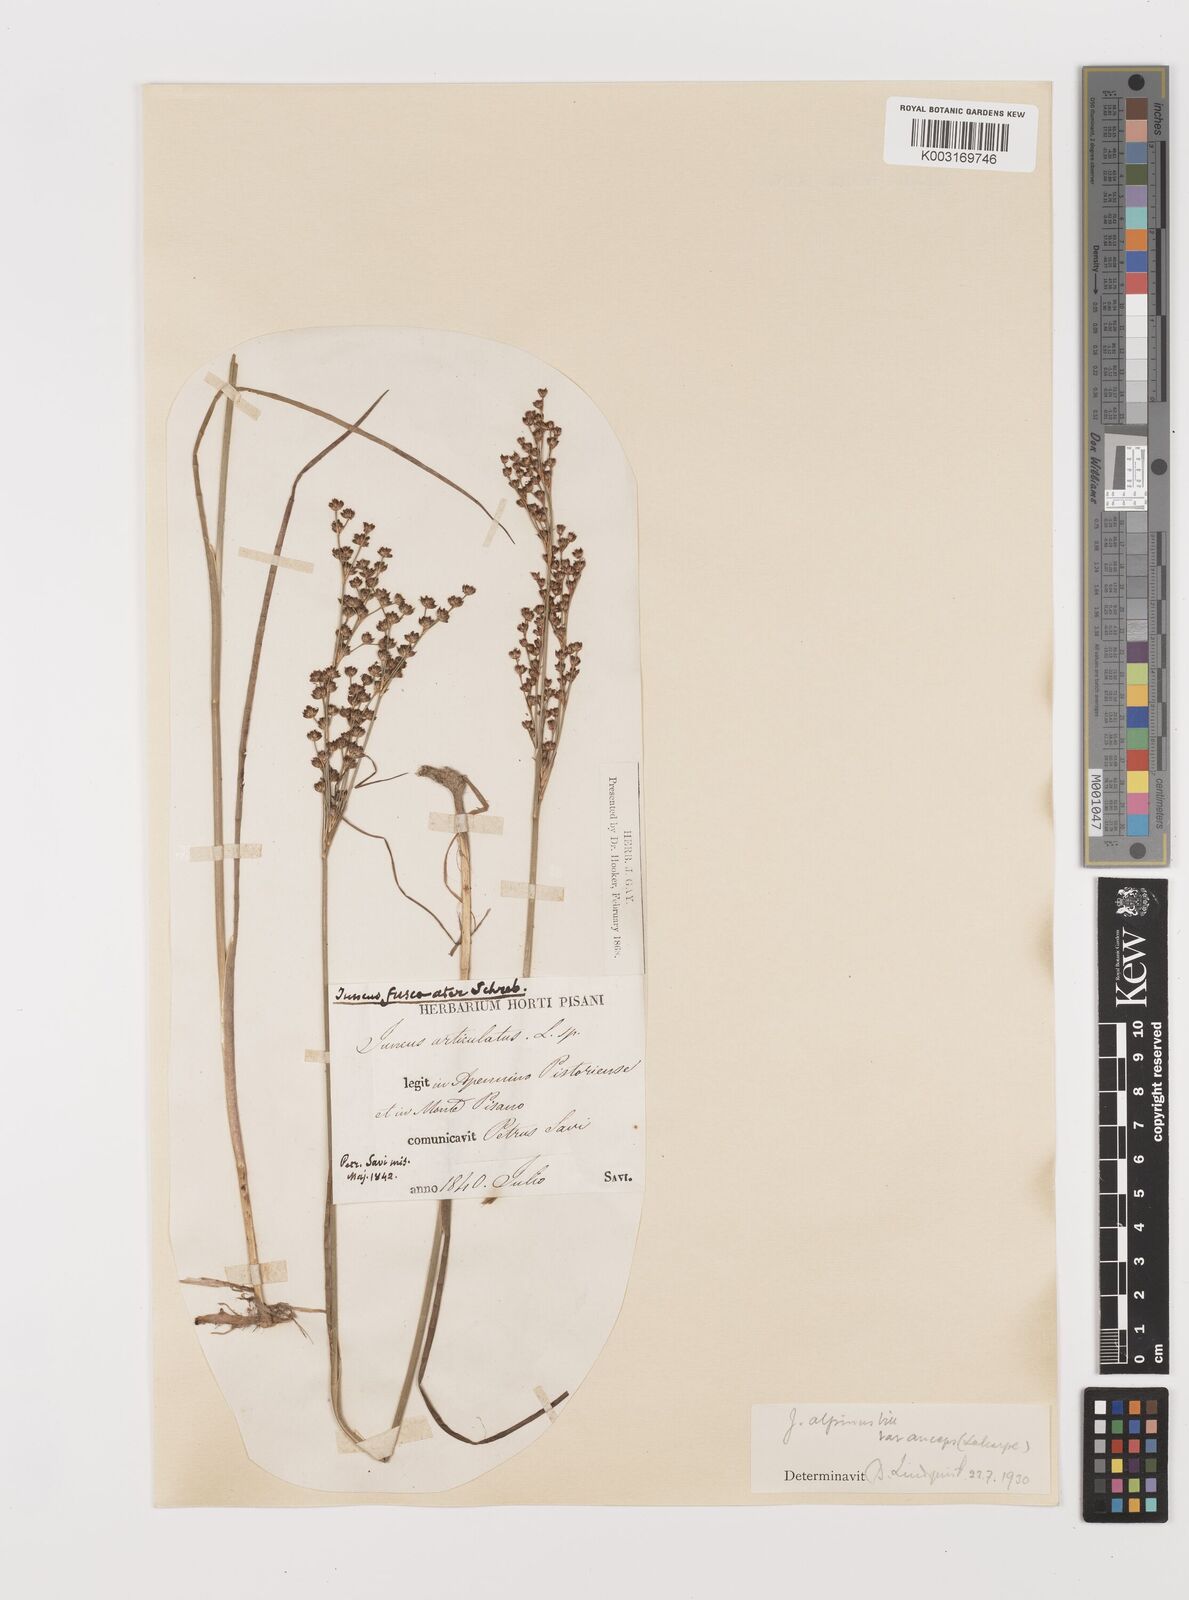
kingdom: Plantae
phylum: Tracheophyta
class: Liliopsida
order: Poales
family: Juncaceae
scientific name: Juncaceae
